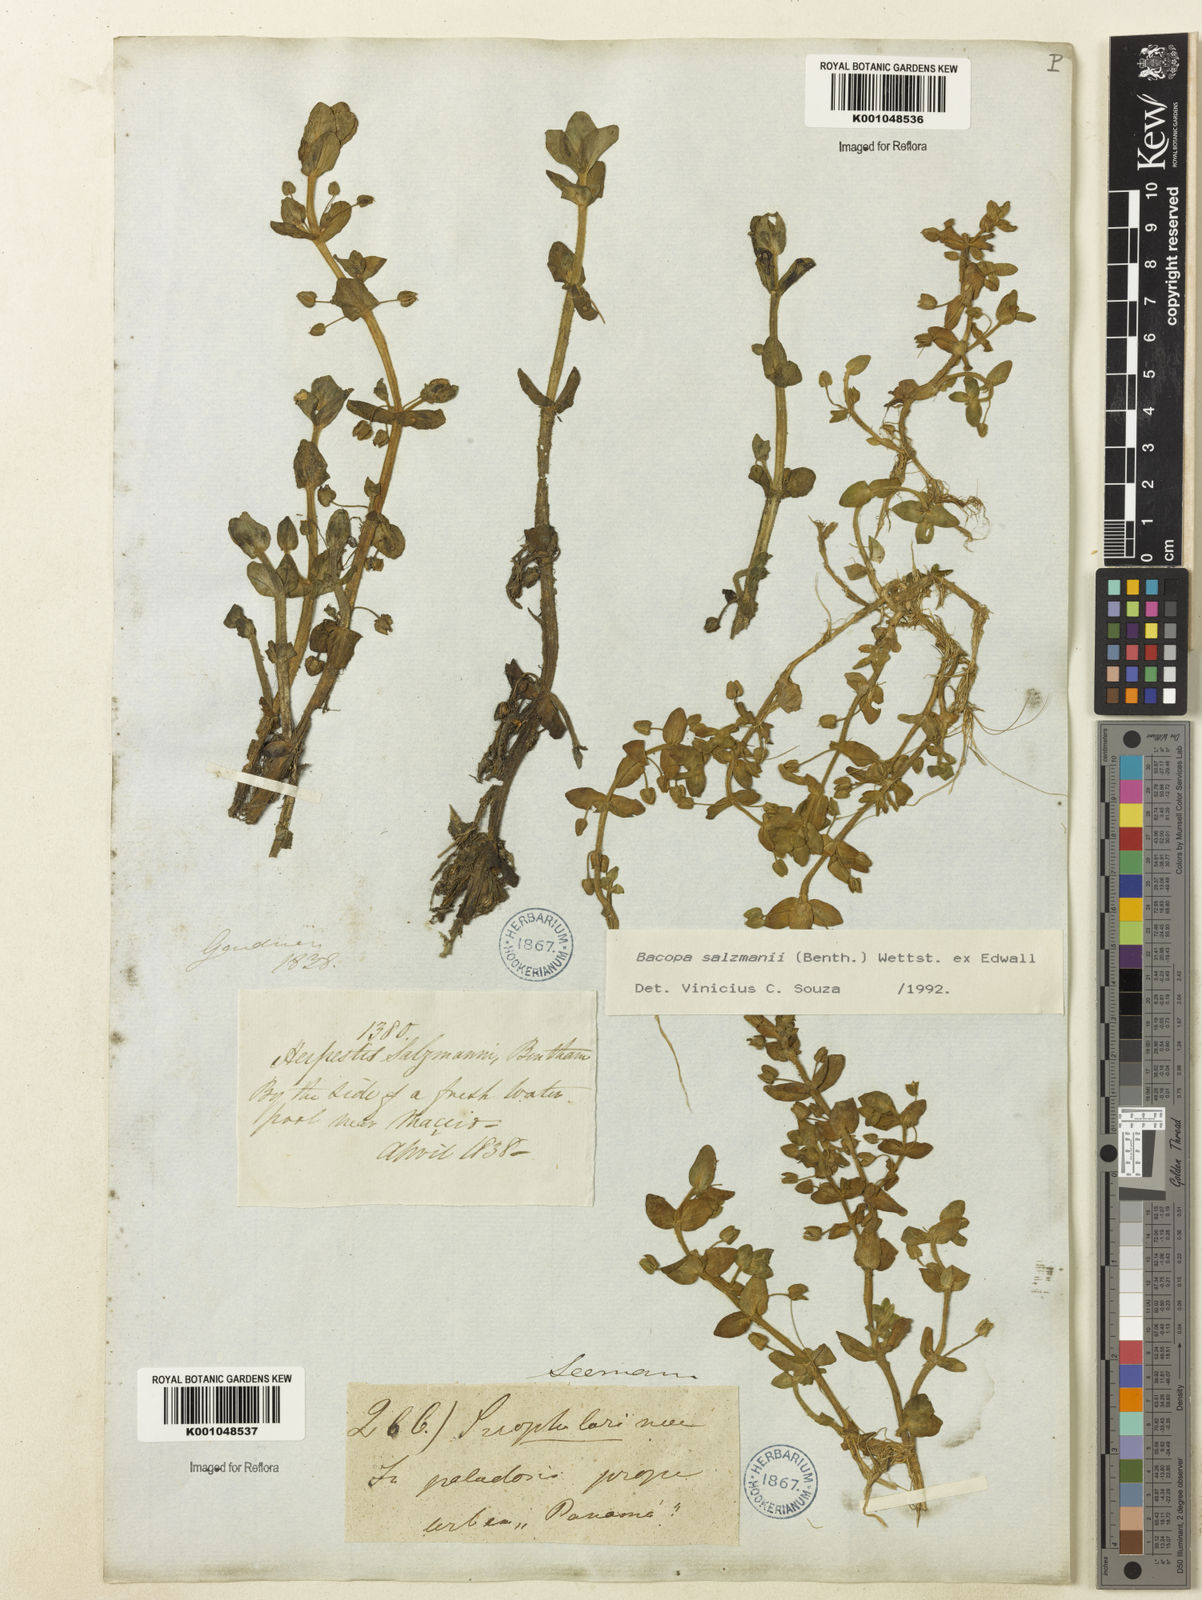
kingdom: Plantae
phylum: Tracheophyta
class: Magnoliopsida
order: Lamiales
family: Plantaginaceae
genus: Bacopa
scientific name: Bacopa salzmannii
